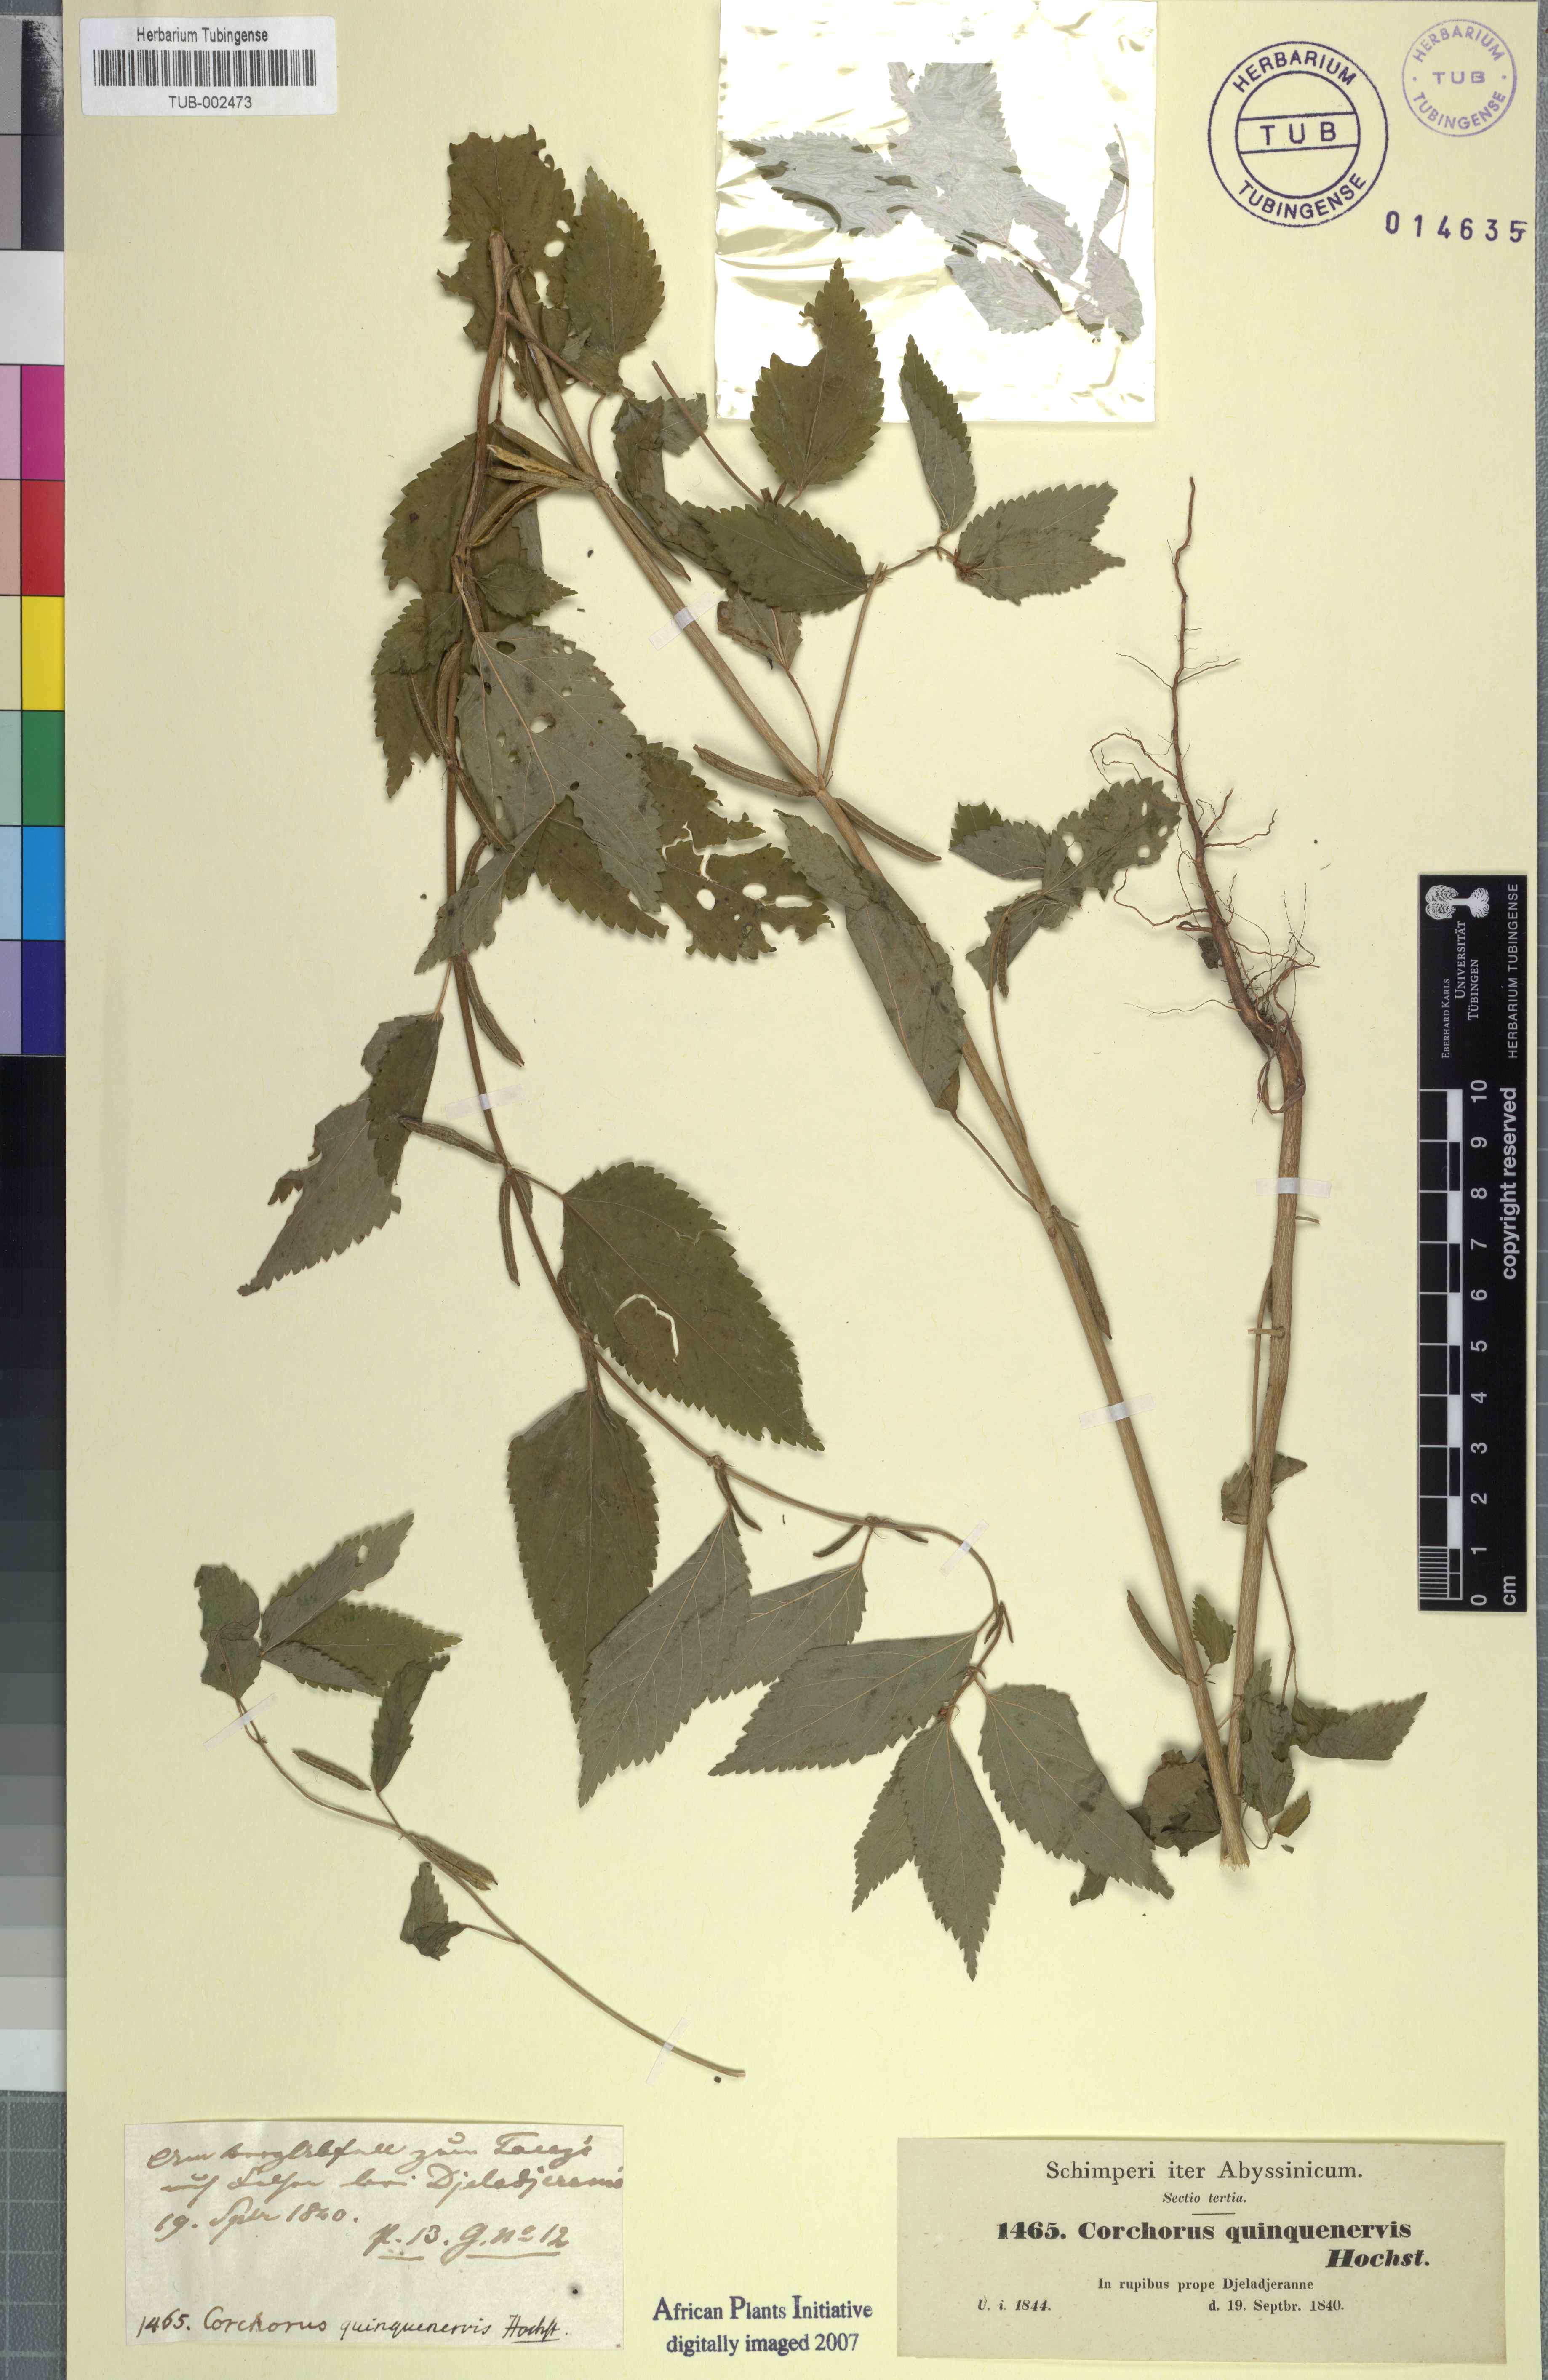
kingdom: Plantae
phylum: Tracheophyta
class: Magnoliopsida
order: Malvales
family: Malvaceae
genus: Corchorus
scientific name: Corchorus urticifolius
